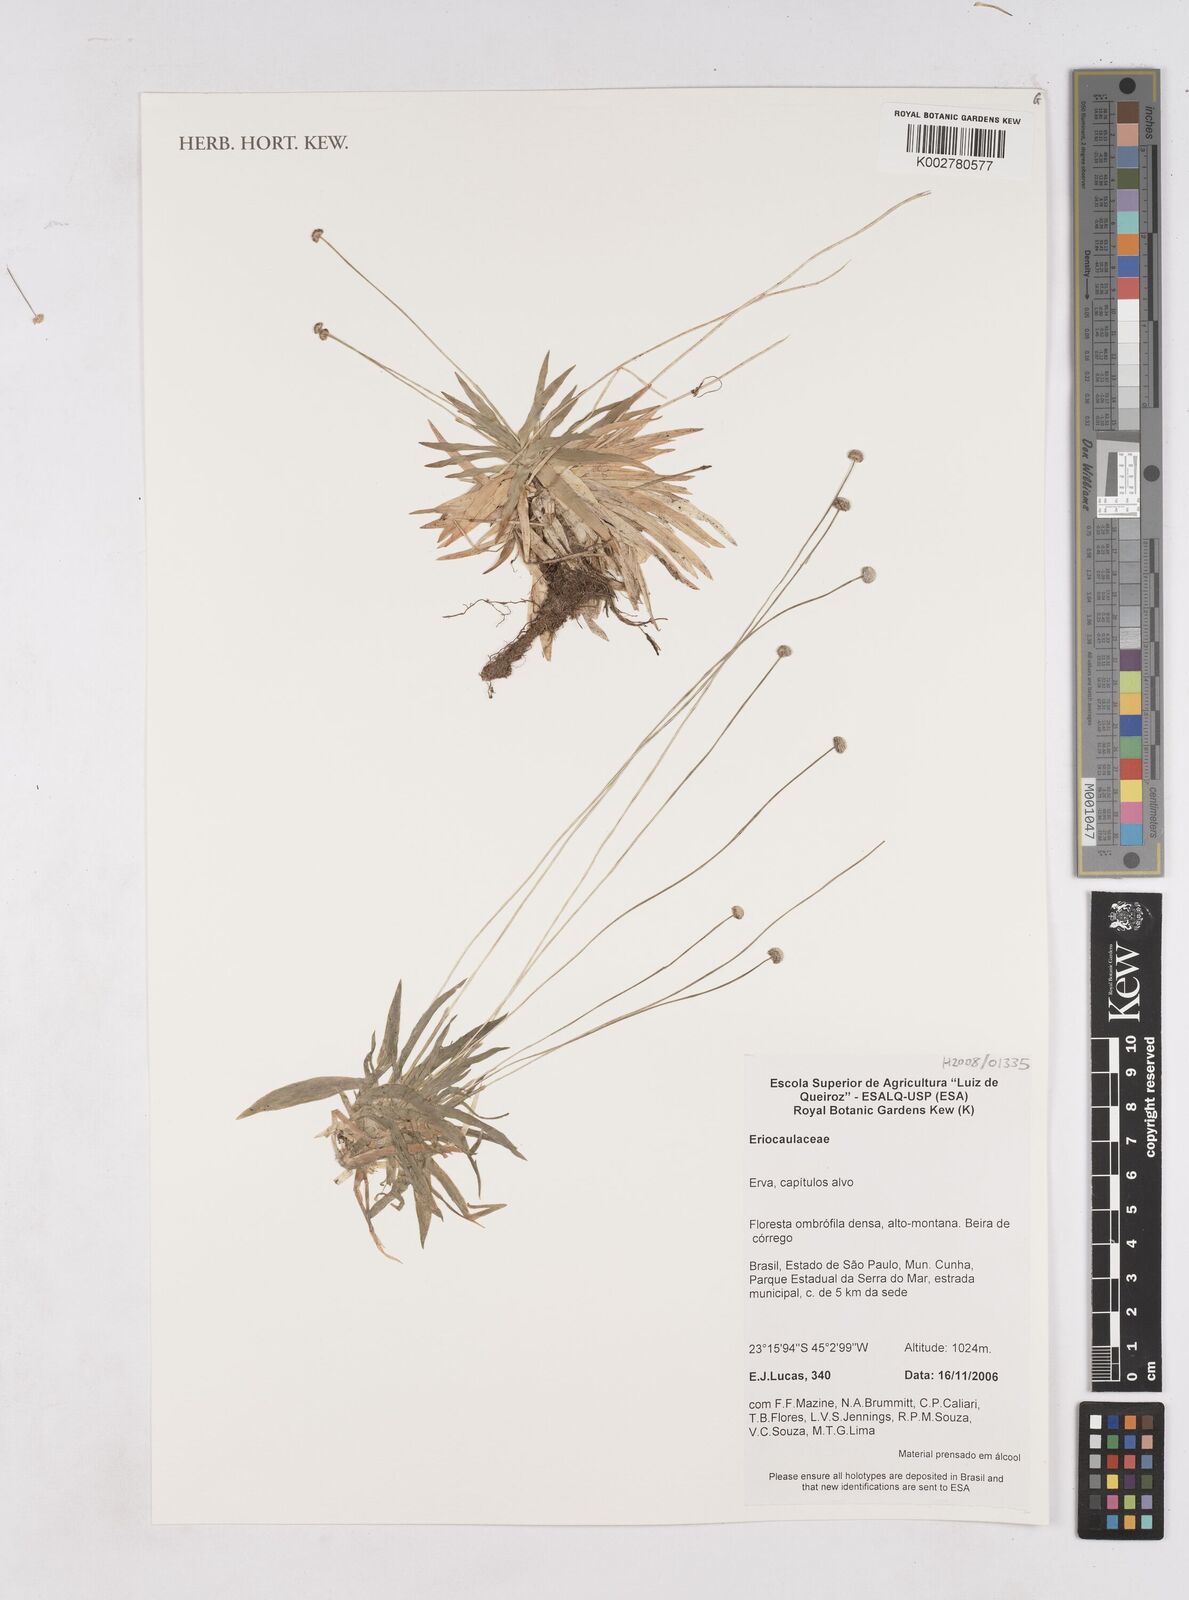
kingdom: Plantae
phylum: Tracheophyta
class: Liliopsida
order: Poales
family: Eriocaulaceae
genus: Paepalanthus
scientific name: Paepalanthus
